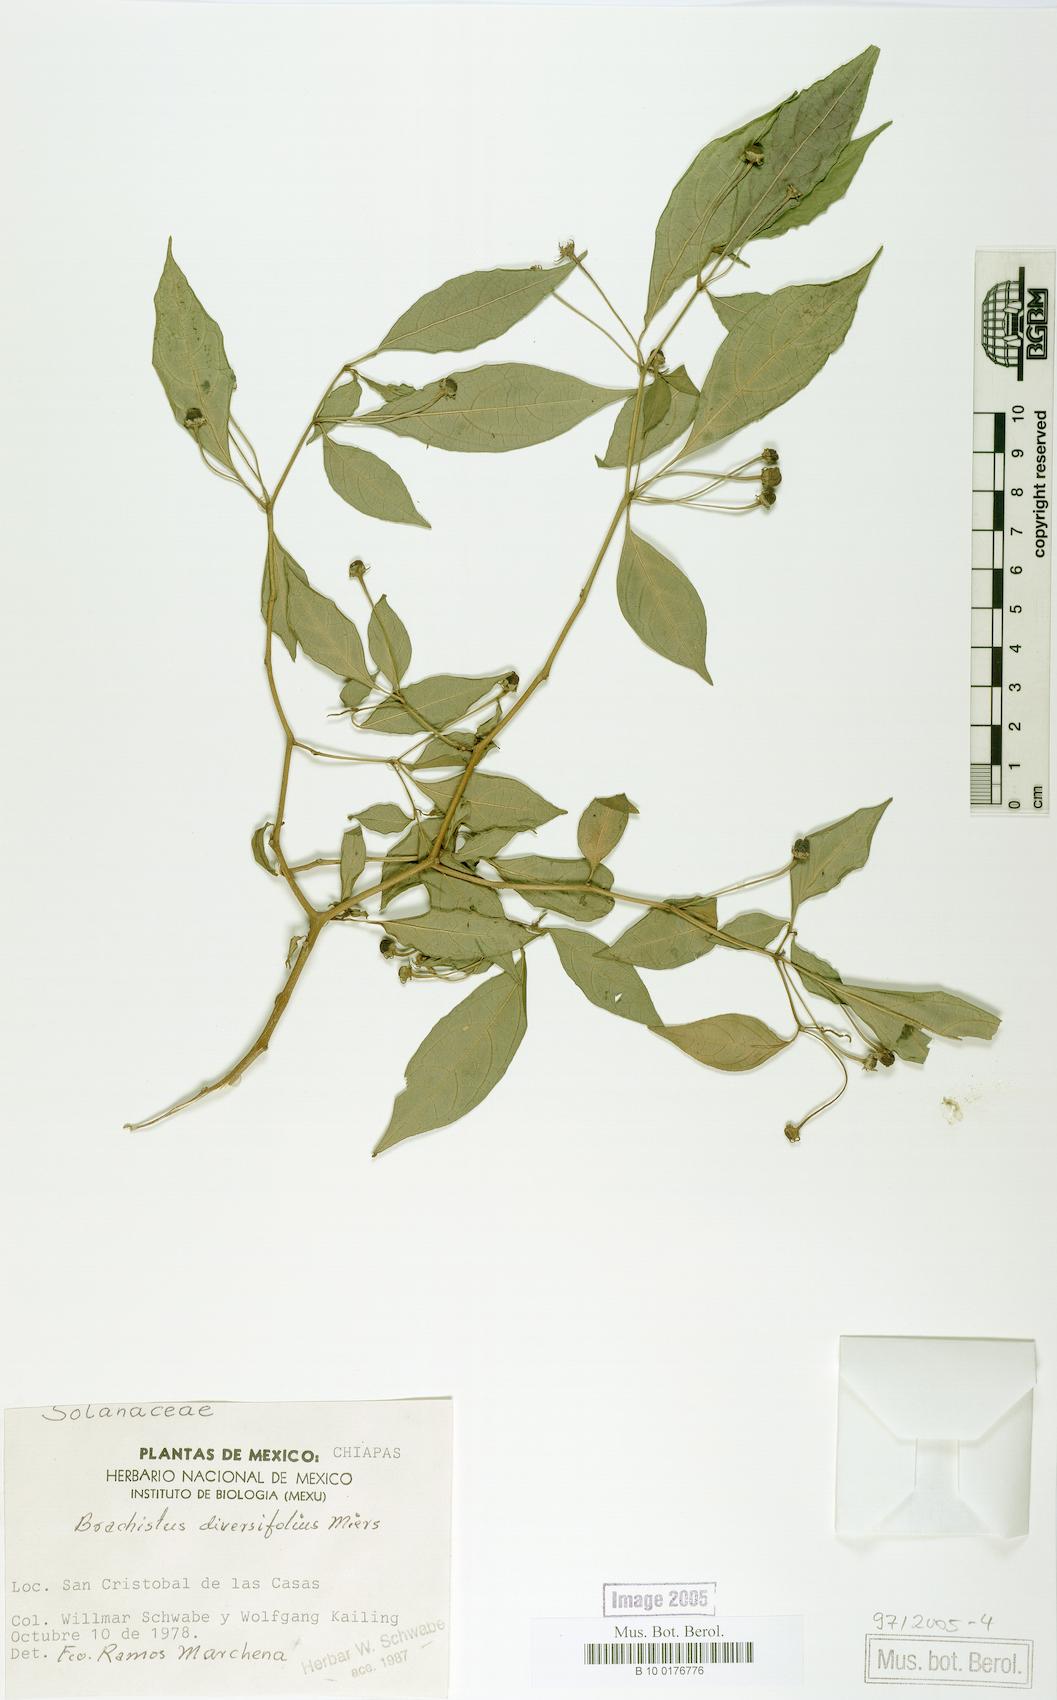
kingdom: Plantae
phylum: Tracheophyta
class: Magnoliopsida
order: Solanales
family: Solanaceae
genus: Capsicum
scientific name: Capsicum rhomboideum
